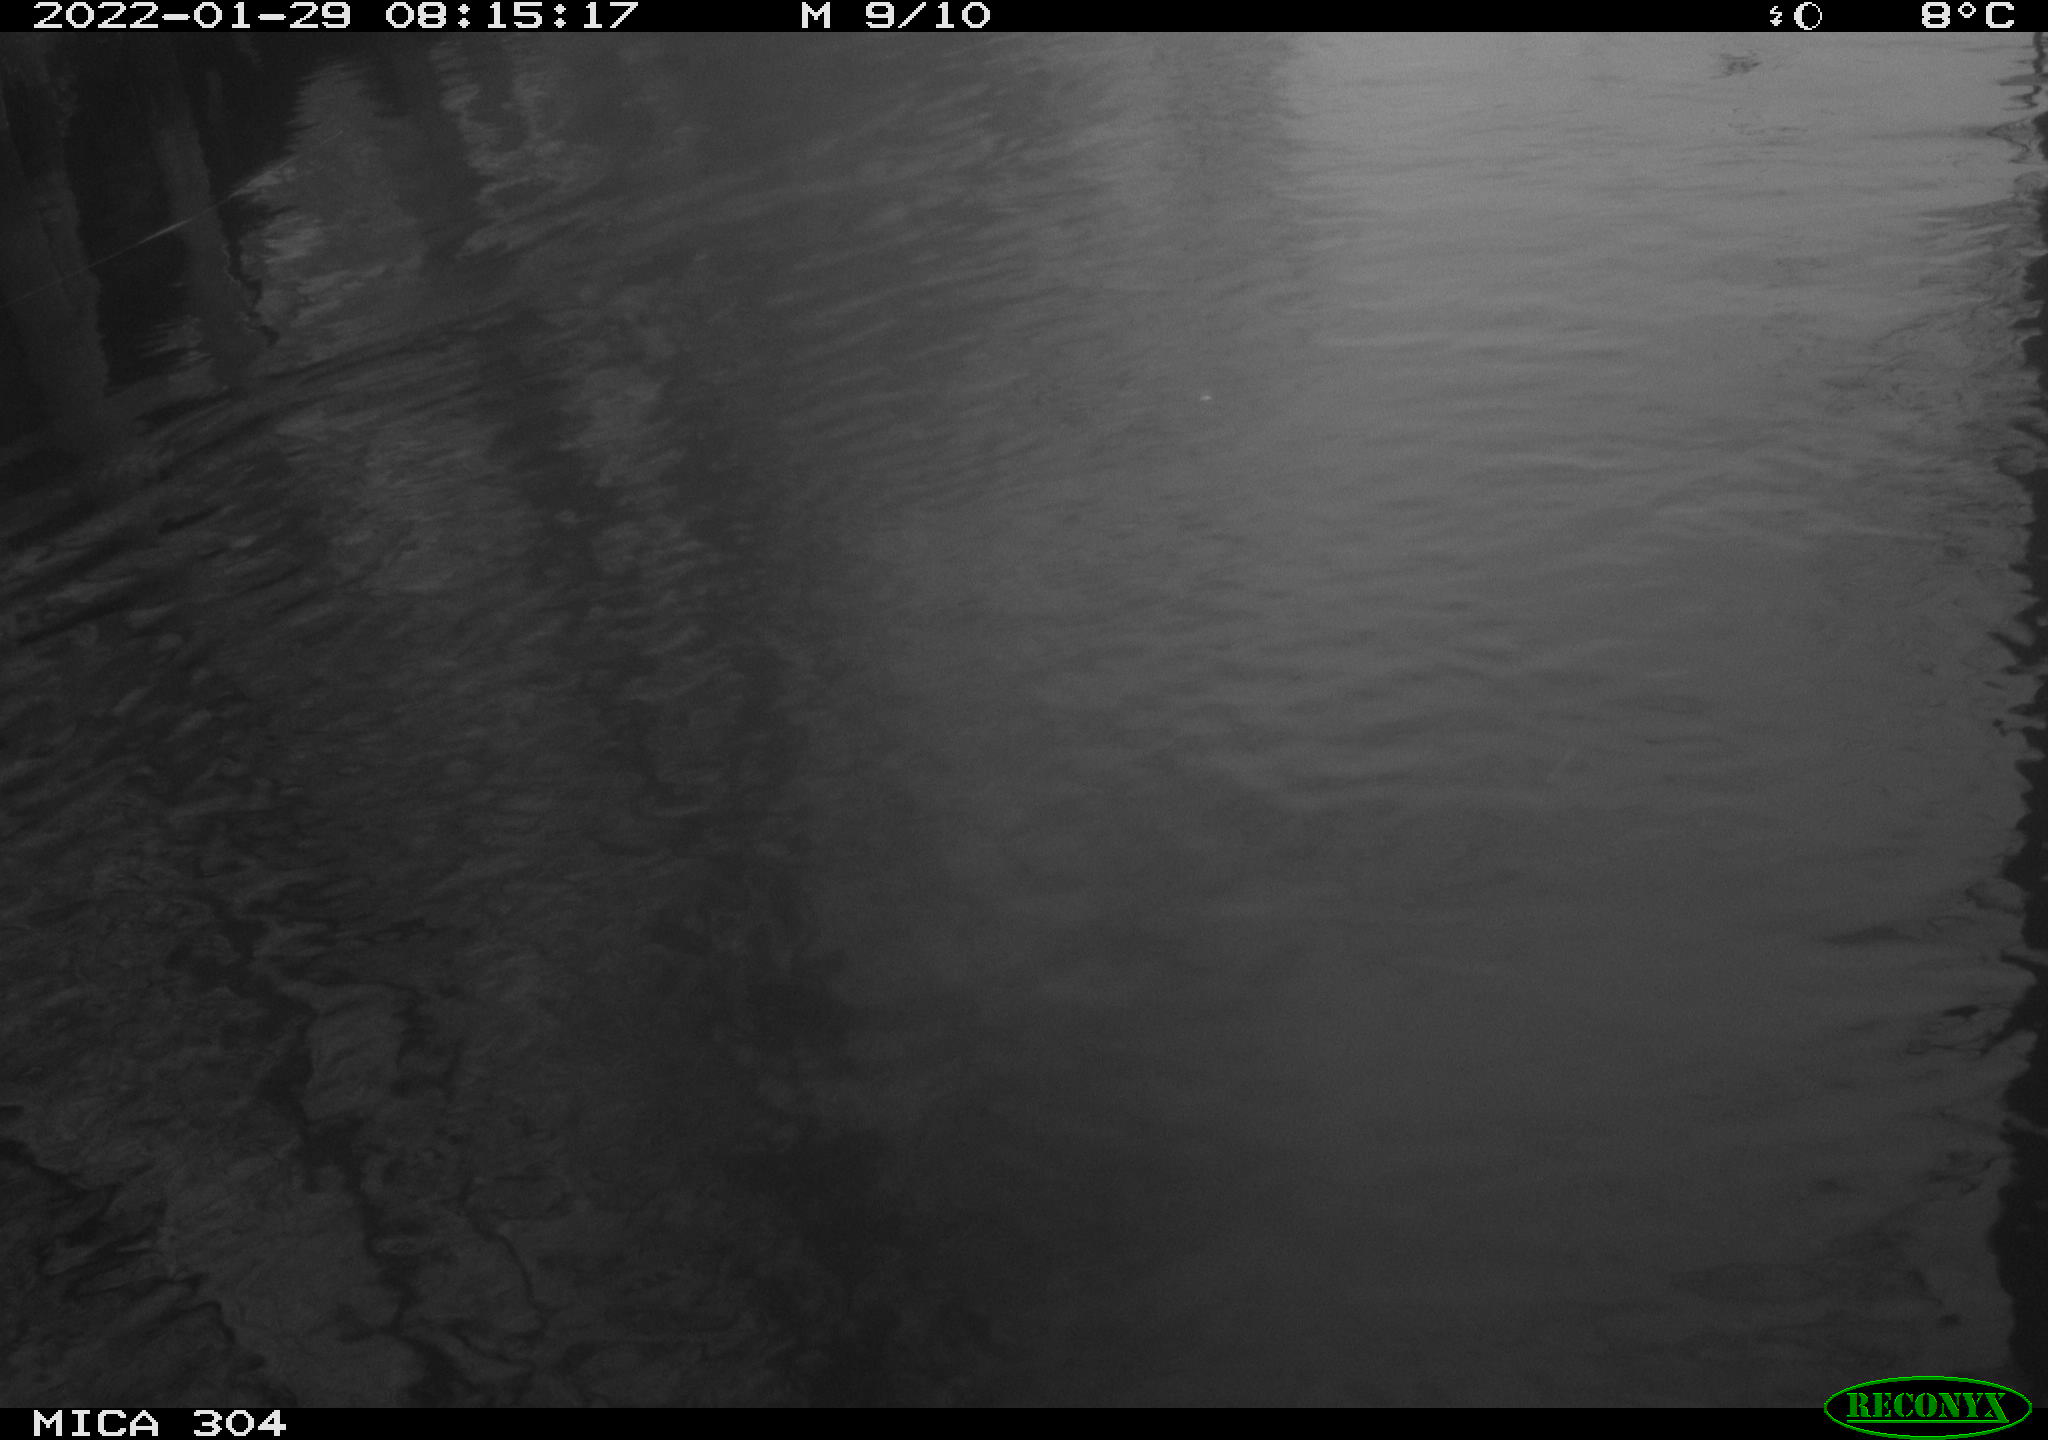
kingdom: Animalia
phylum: Chordata
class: Aves
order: Anseriformes
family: Anatidae
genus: Anas
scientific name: Anas
